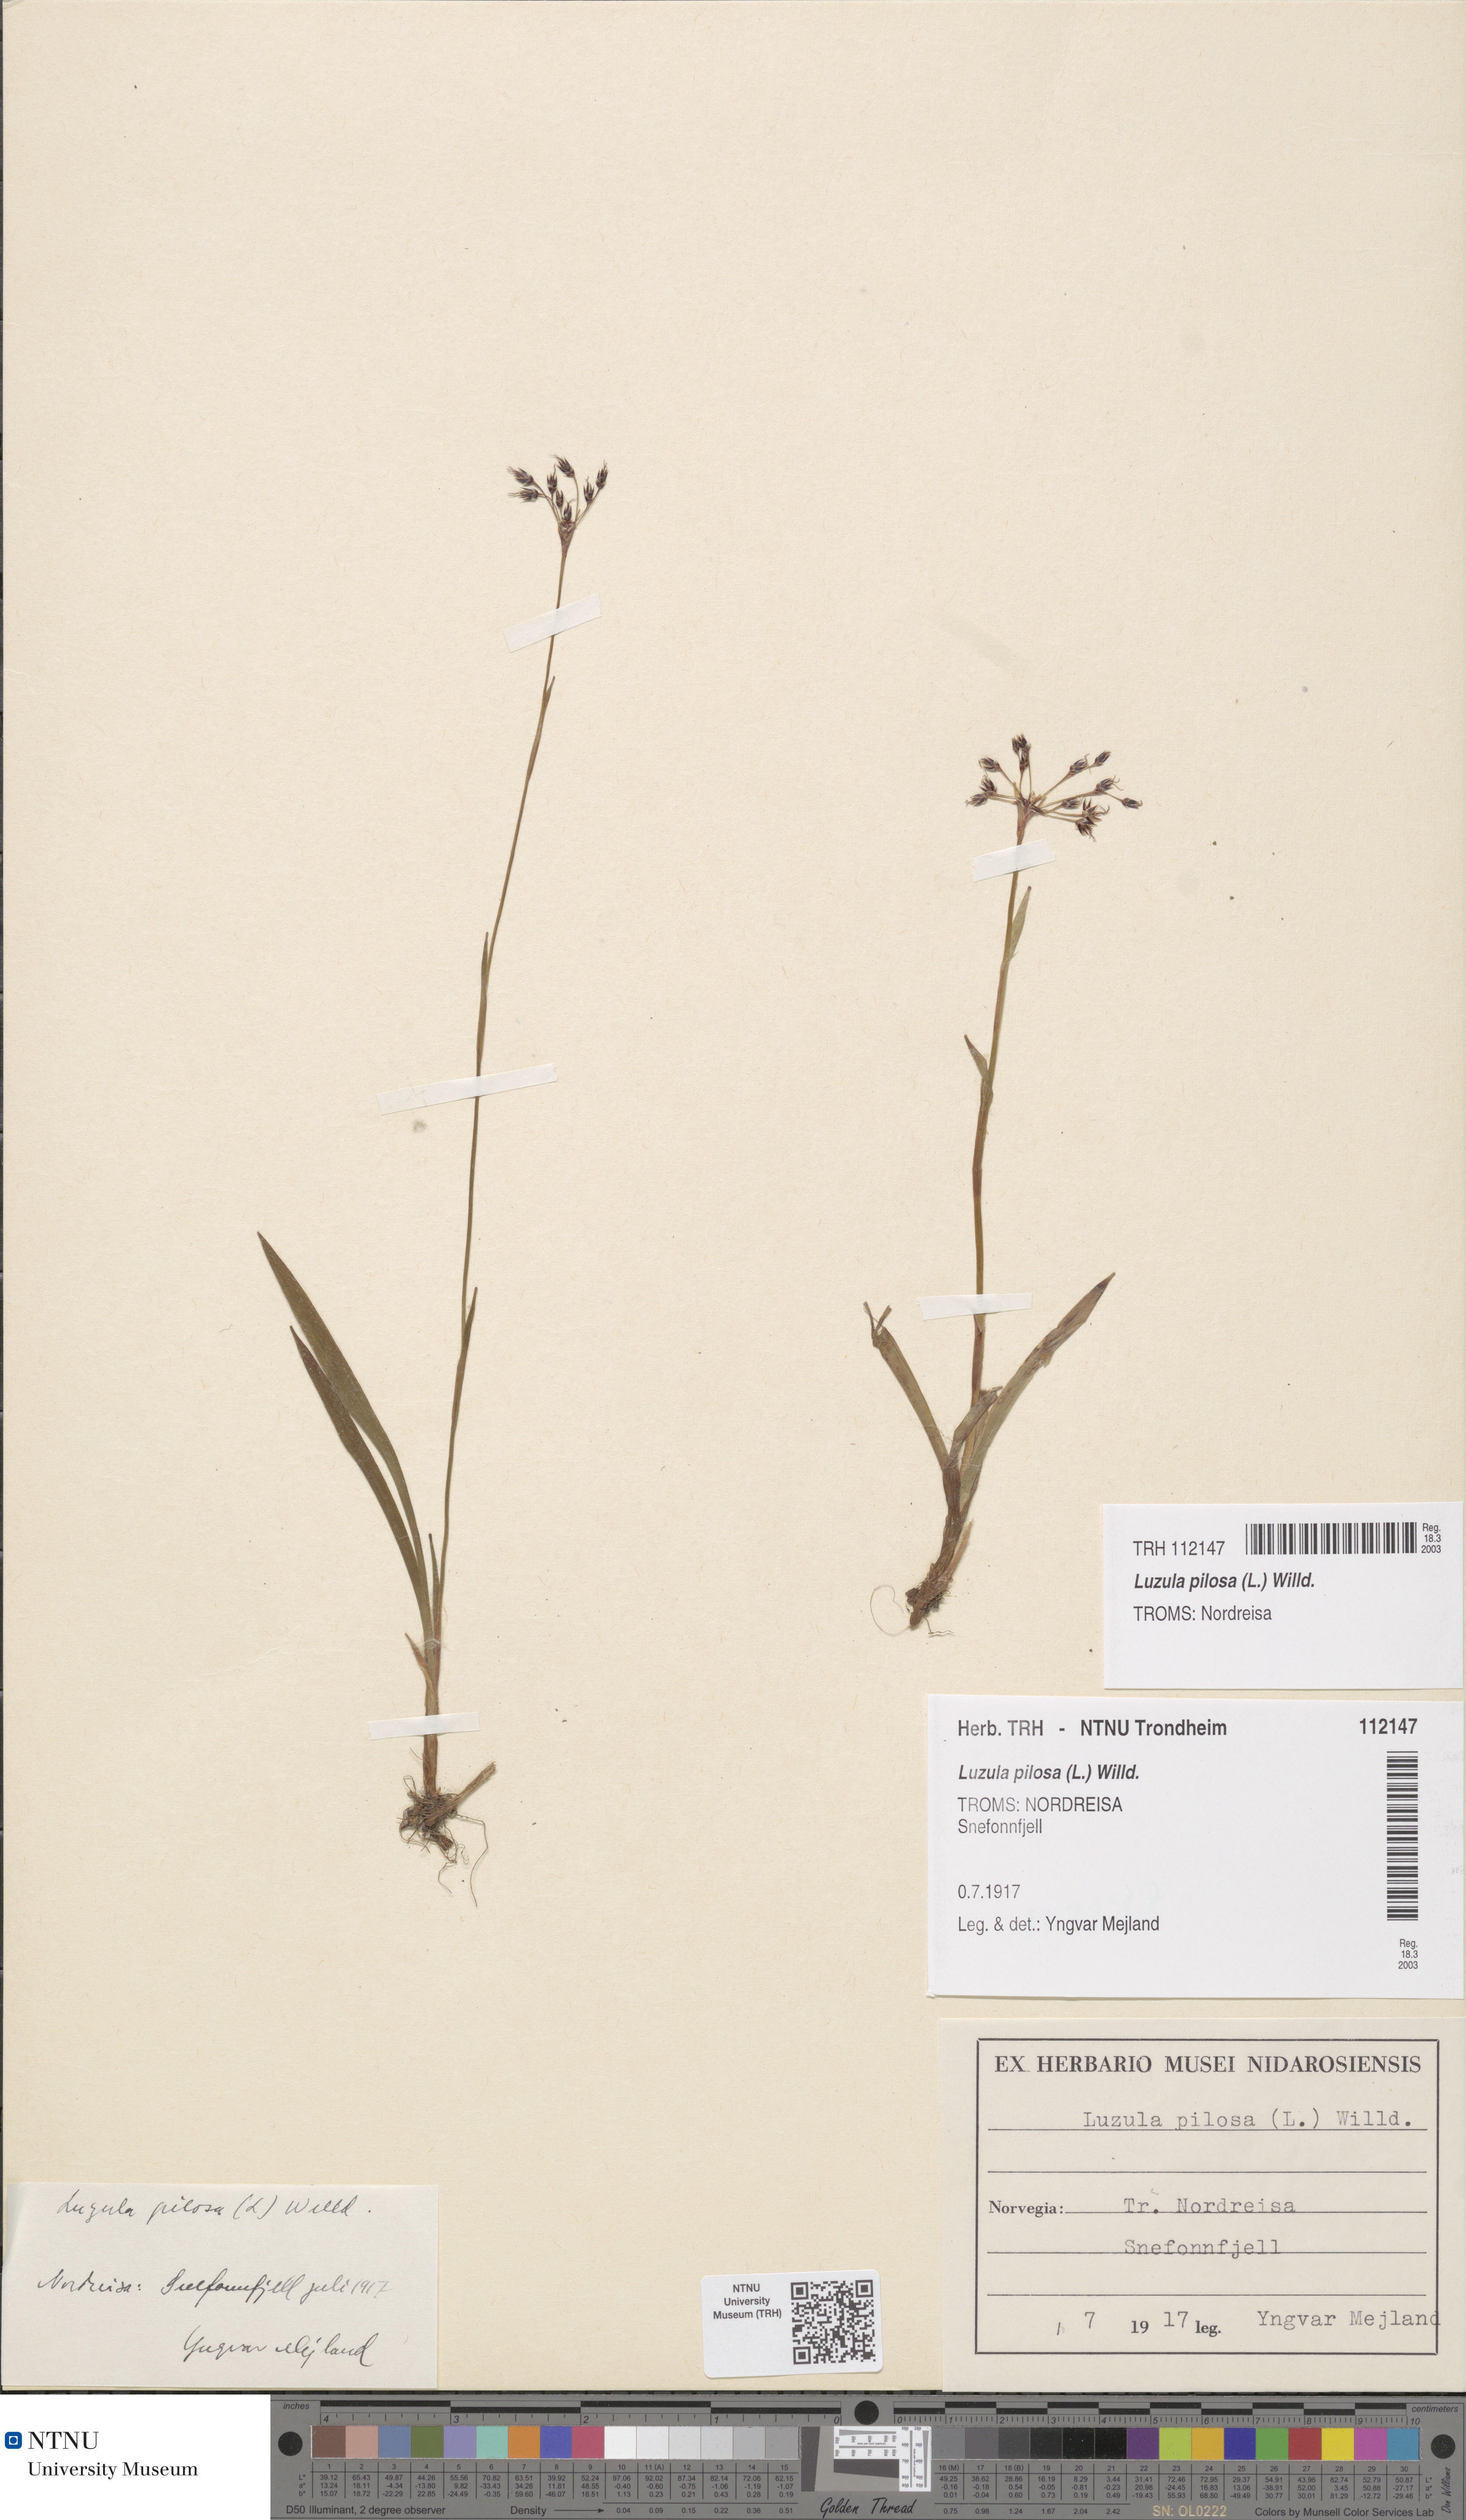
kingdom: Plantae
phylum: Tracheophyta
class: Liliopsida
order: Poales
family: Juncaceae
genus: Luzula
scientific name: Luzula pilosa
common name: Hairy wood-rush
